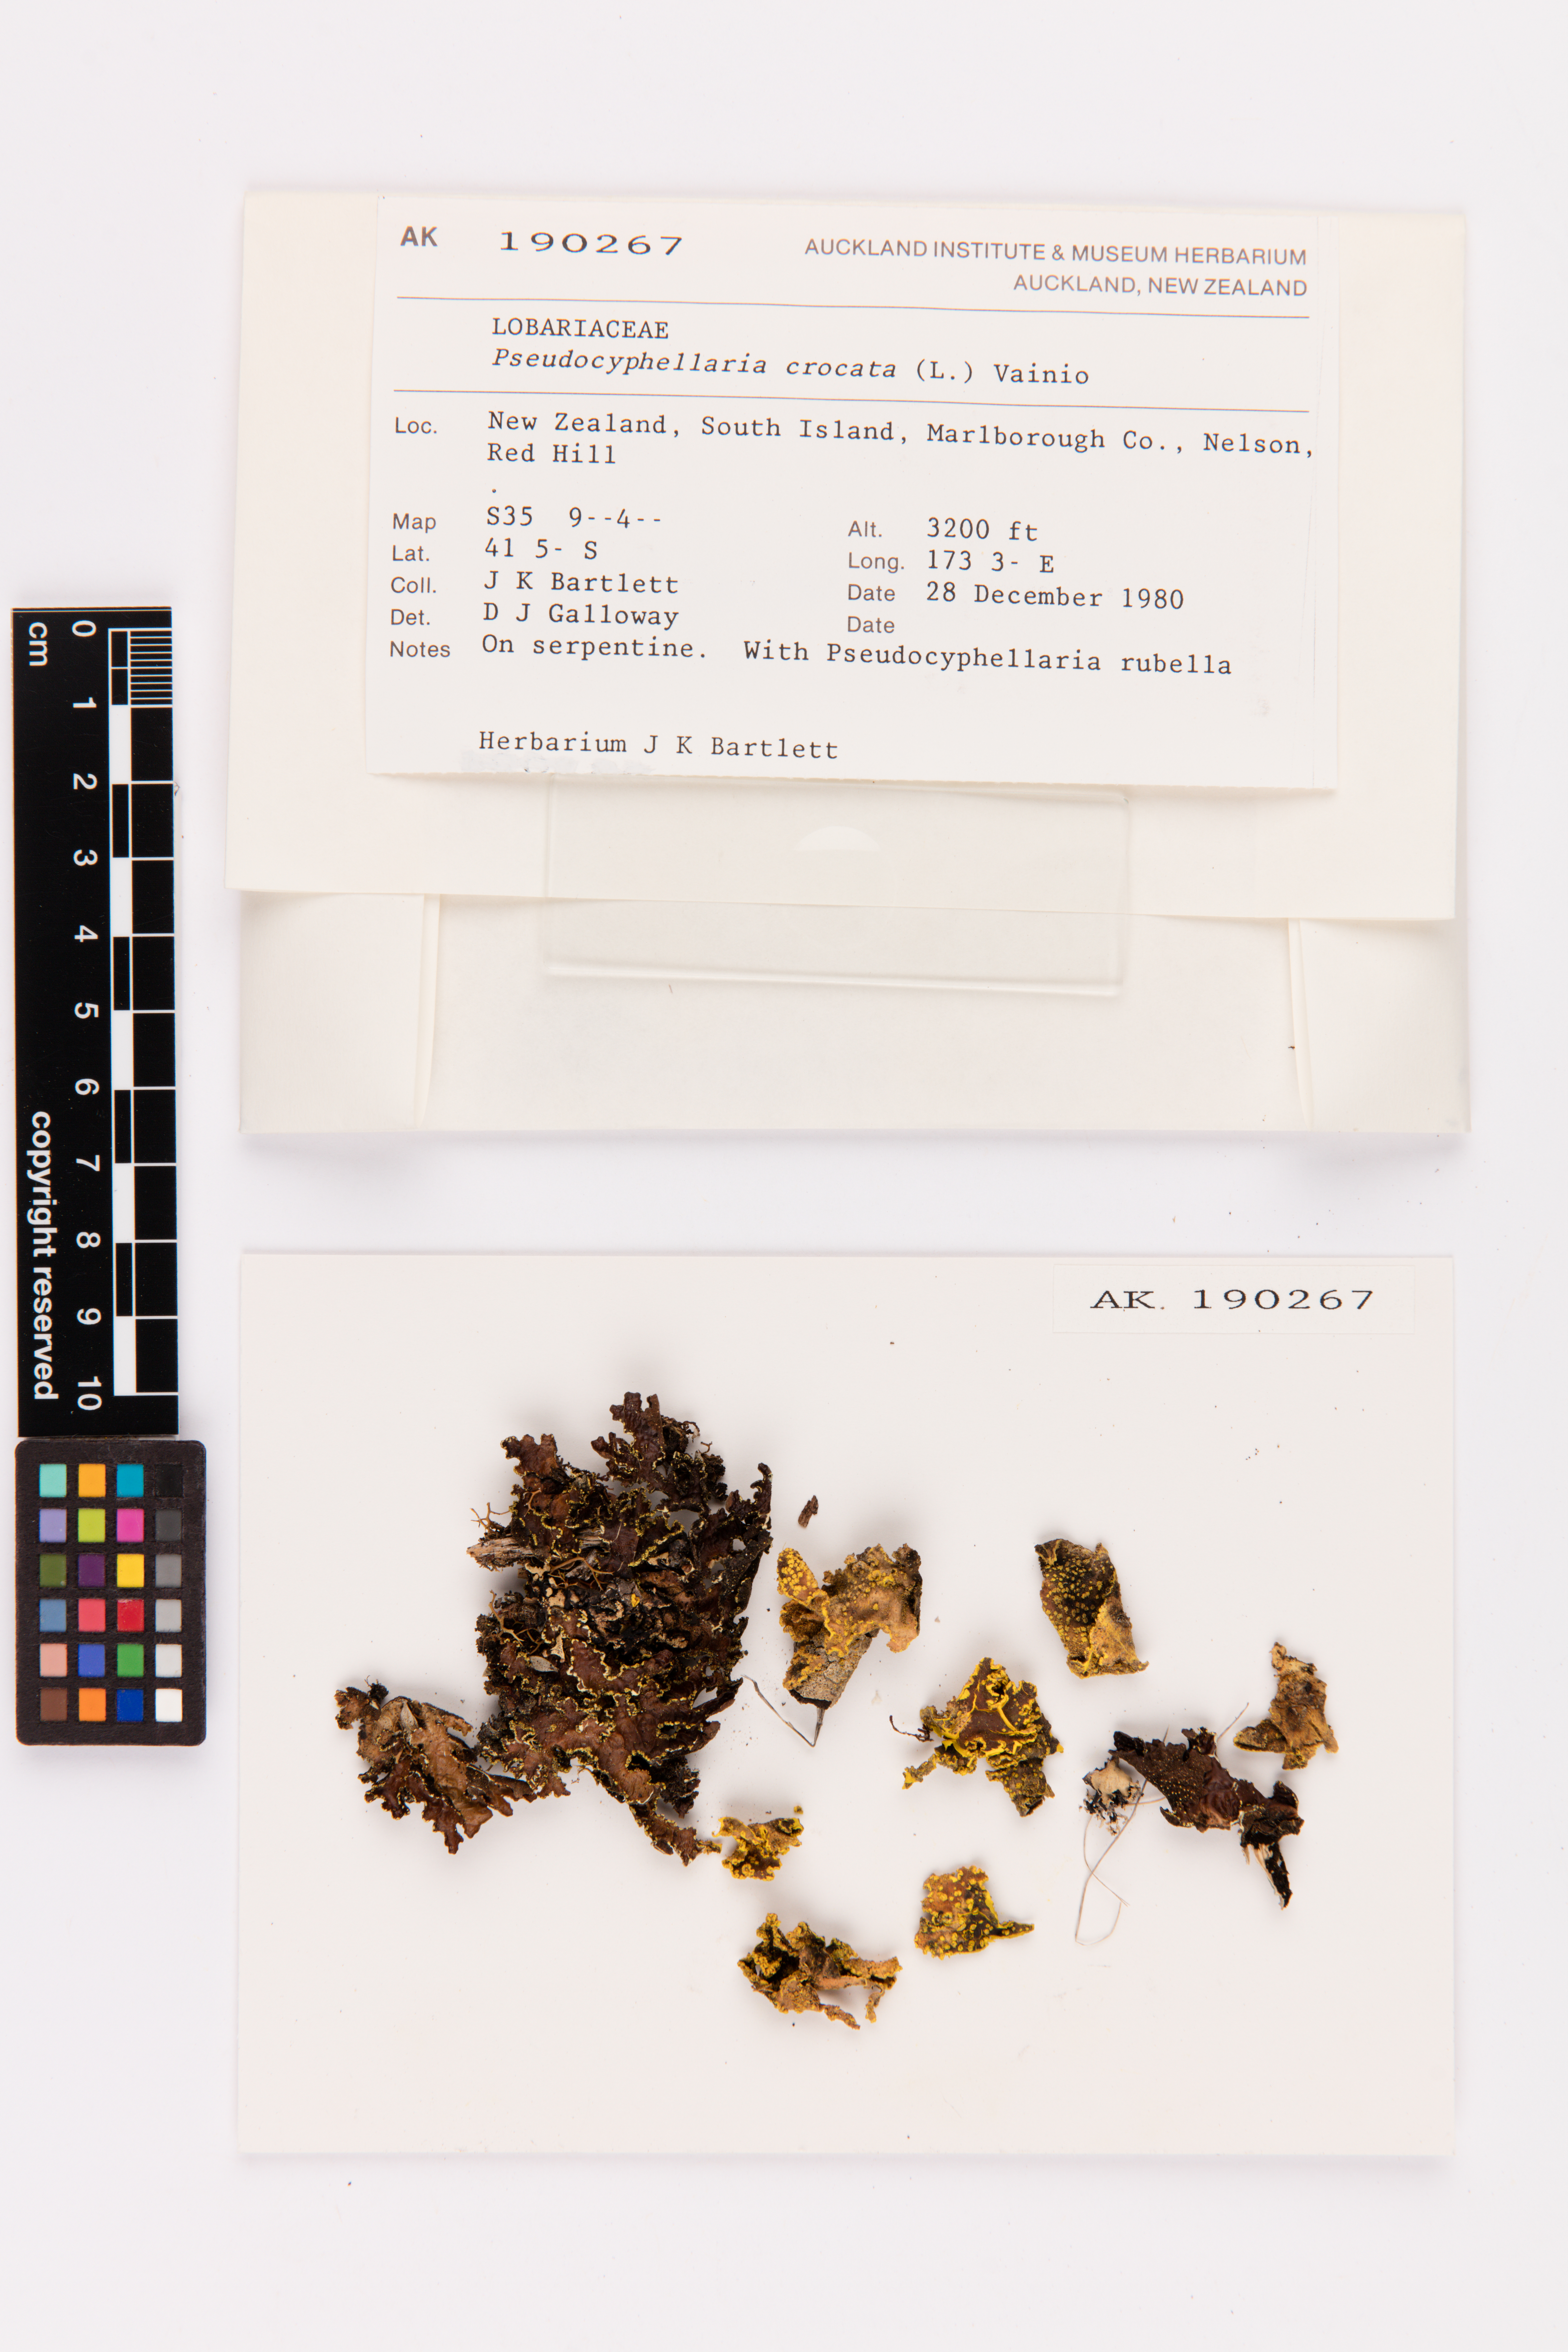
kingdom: Fungi
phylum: Ascomycota
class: Lecanoromycetes
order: Peltigerales
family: Lobariaceae
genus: Pseudocyphellaria
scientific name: Pseudocyphellaria crocata
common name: Golden specklebelly
